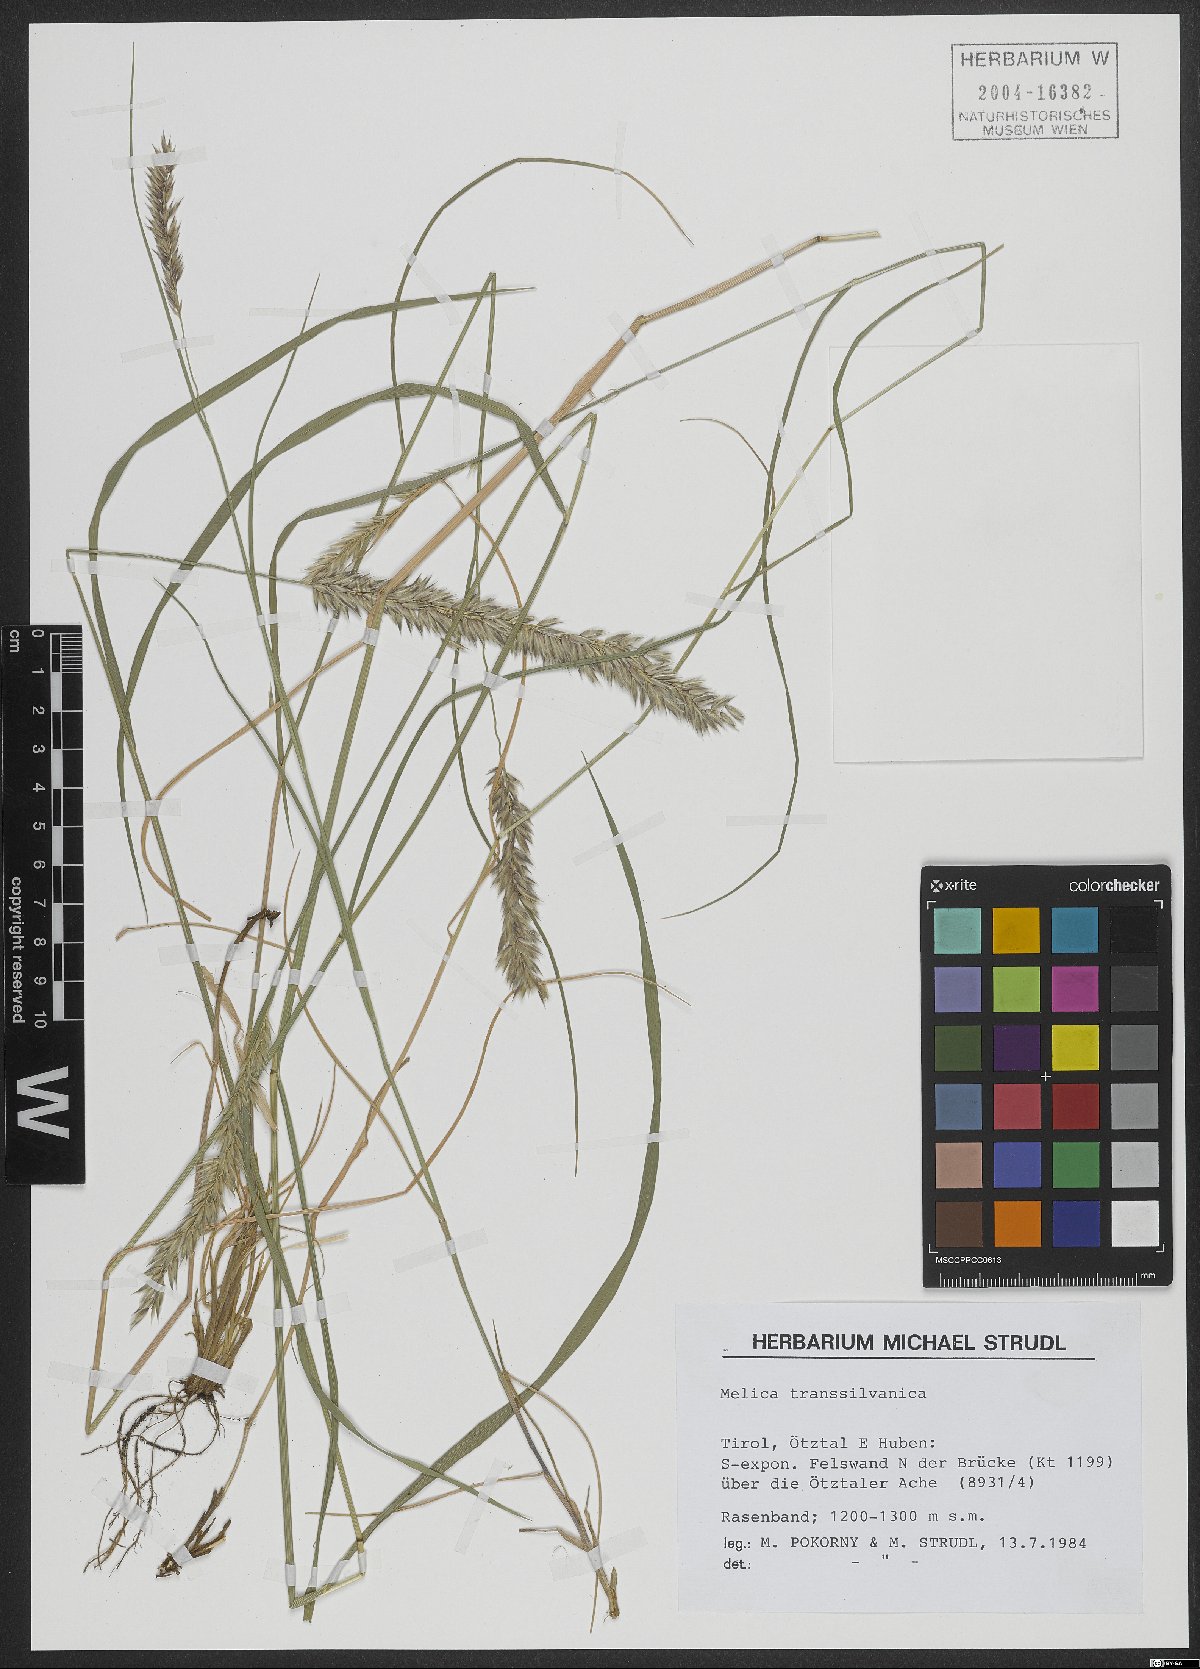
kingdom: Plantae
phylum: Tracheophyta
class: Liliopsida
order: Poales
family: Poaceae
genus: Melica
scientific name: Melica transsilvanica
